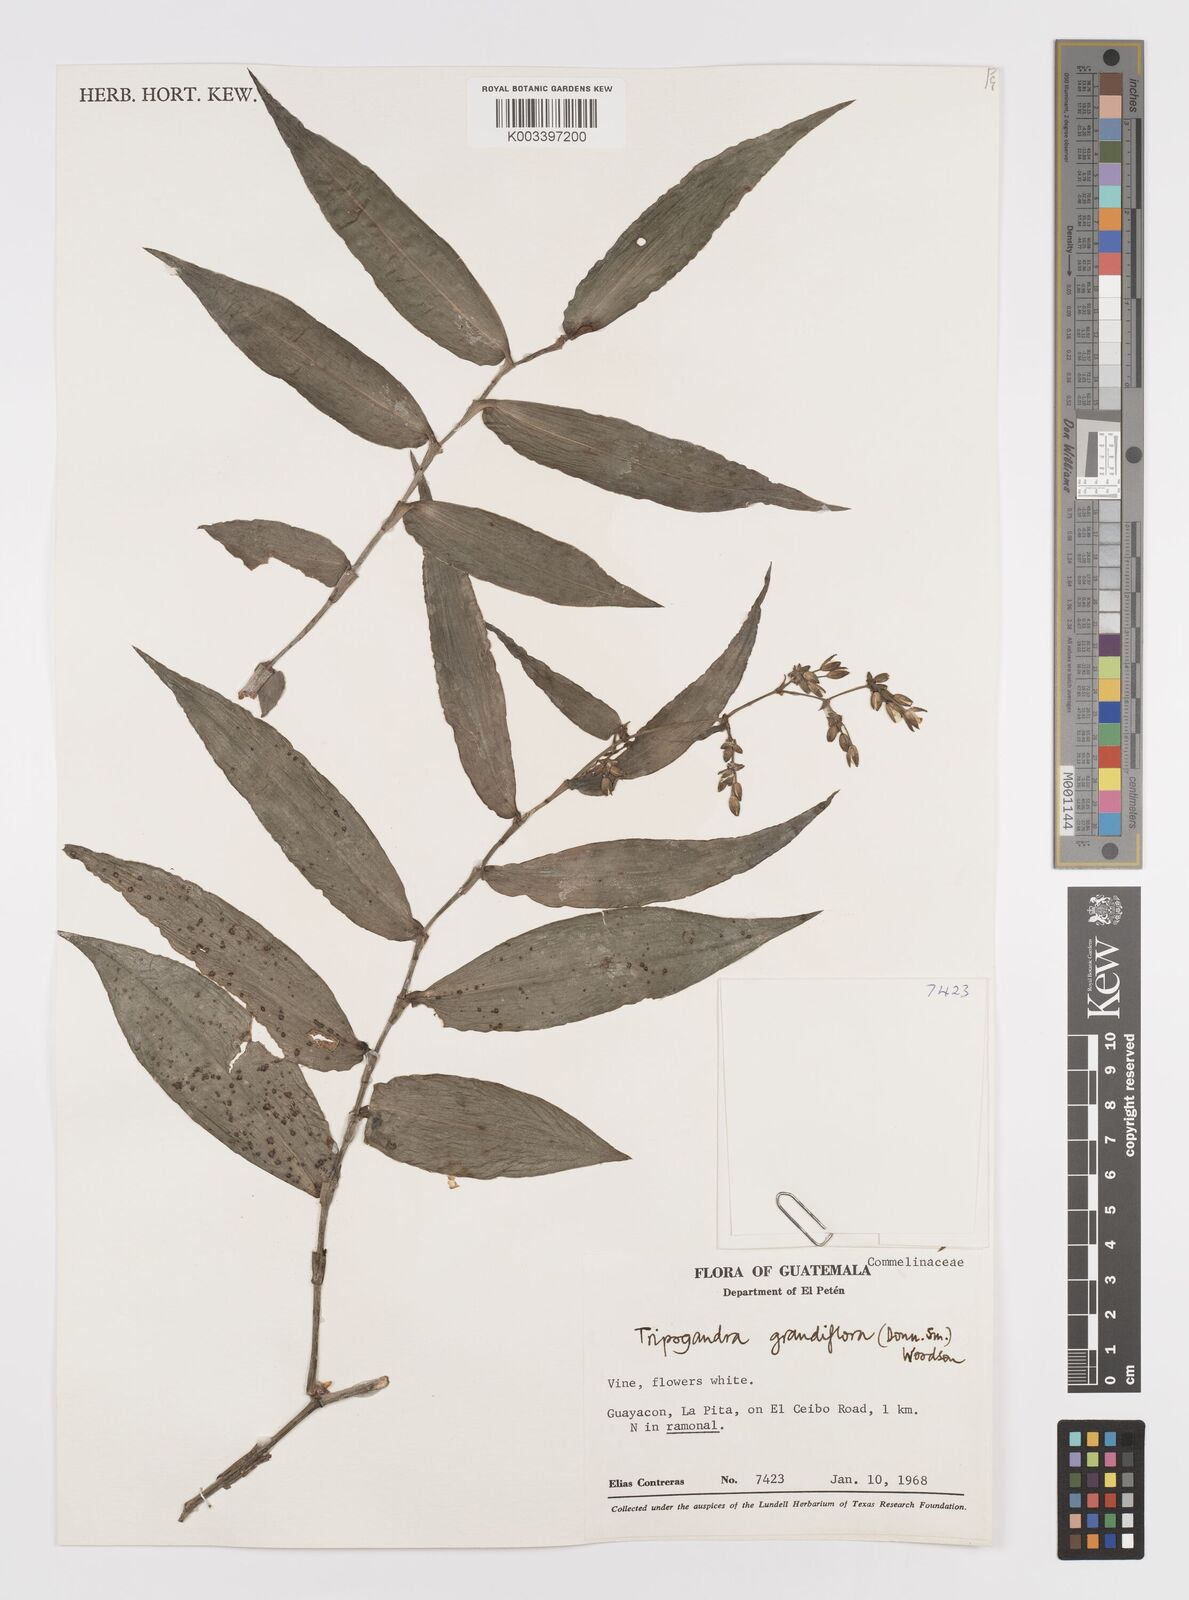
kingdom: Plantae
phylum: Tracheophyta
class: Liliopsida
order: Commelinales
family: Commelinaceae
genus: Callisia
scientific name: Callisia grandiflora
